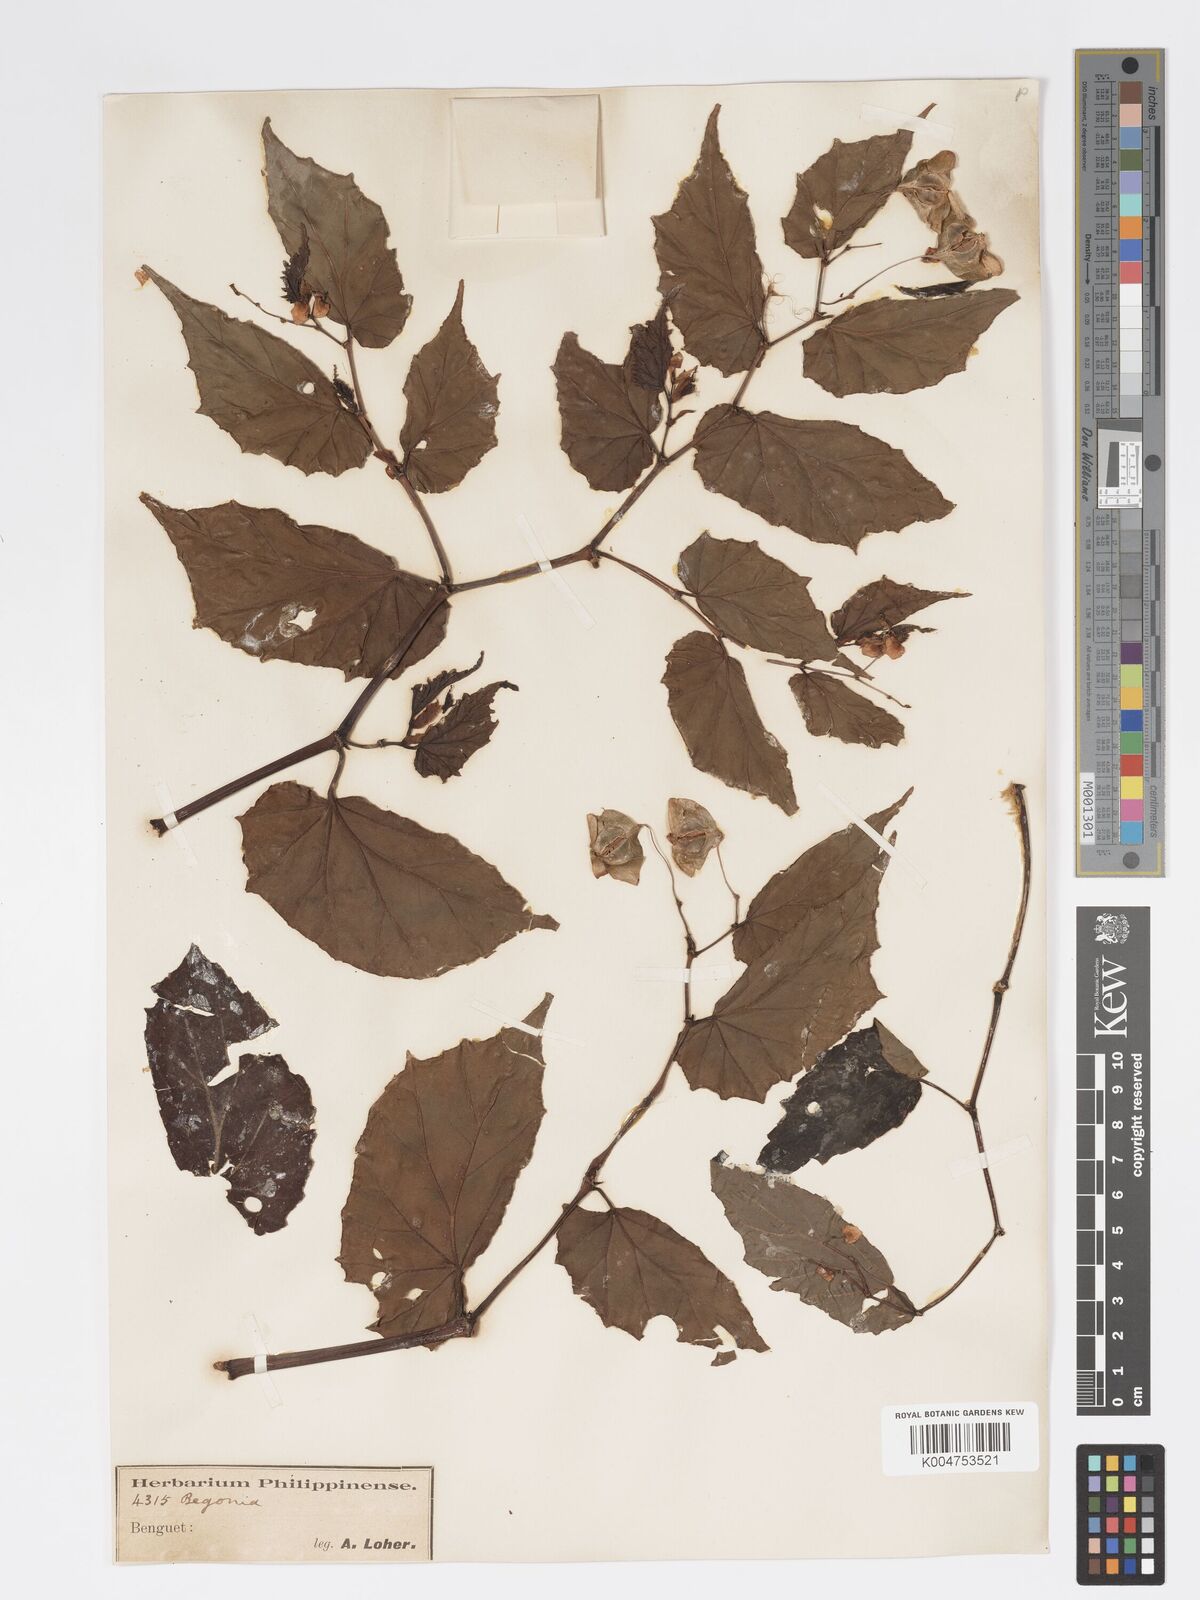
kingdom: Plantae
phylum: Tracheophyta
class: Magnoliopsida
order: Cucurbitales
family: Begoniaceae
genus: Begonia
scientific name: Begonia
